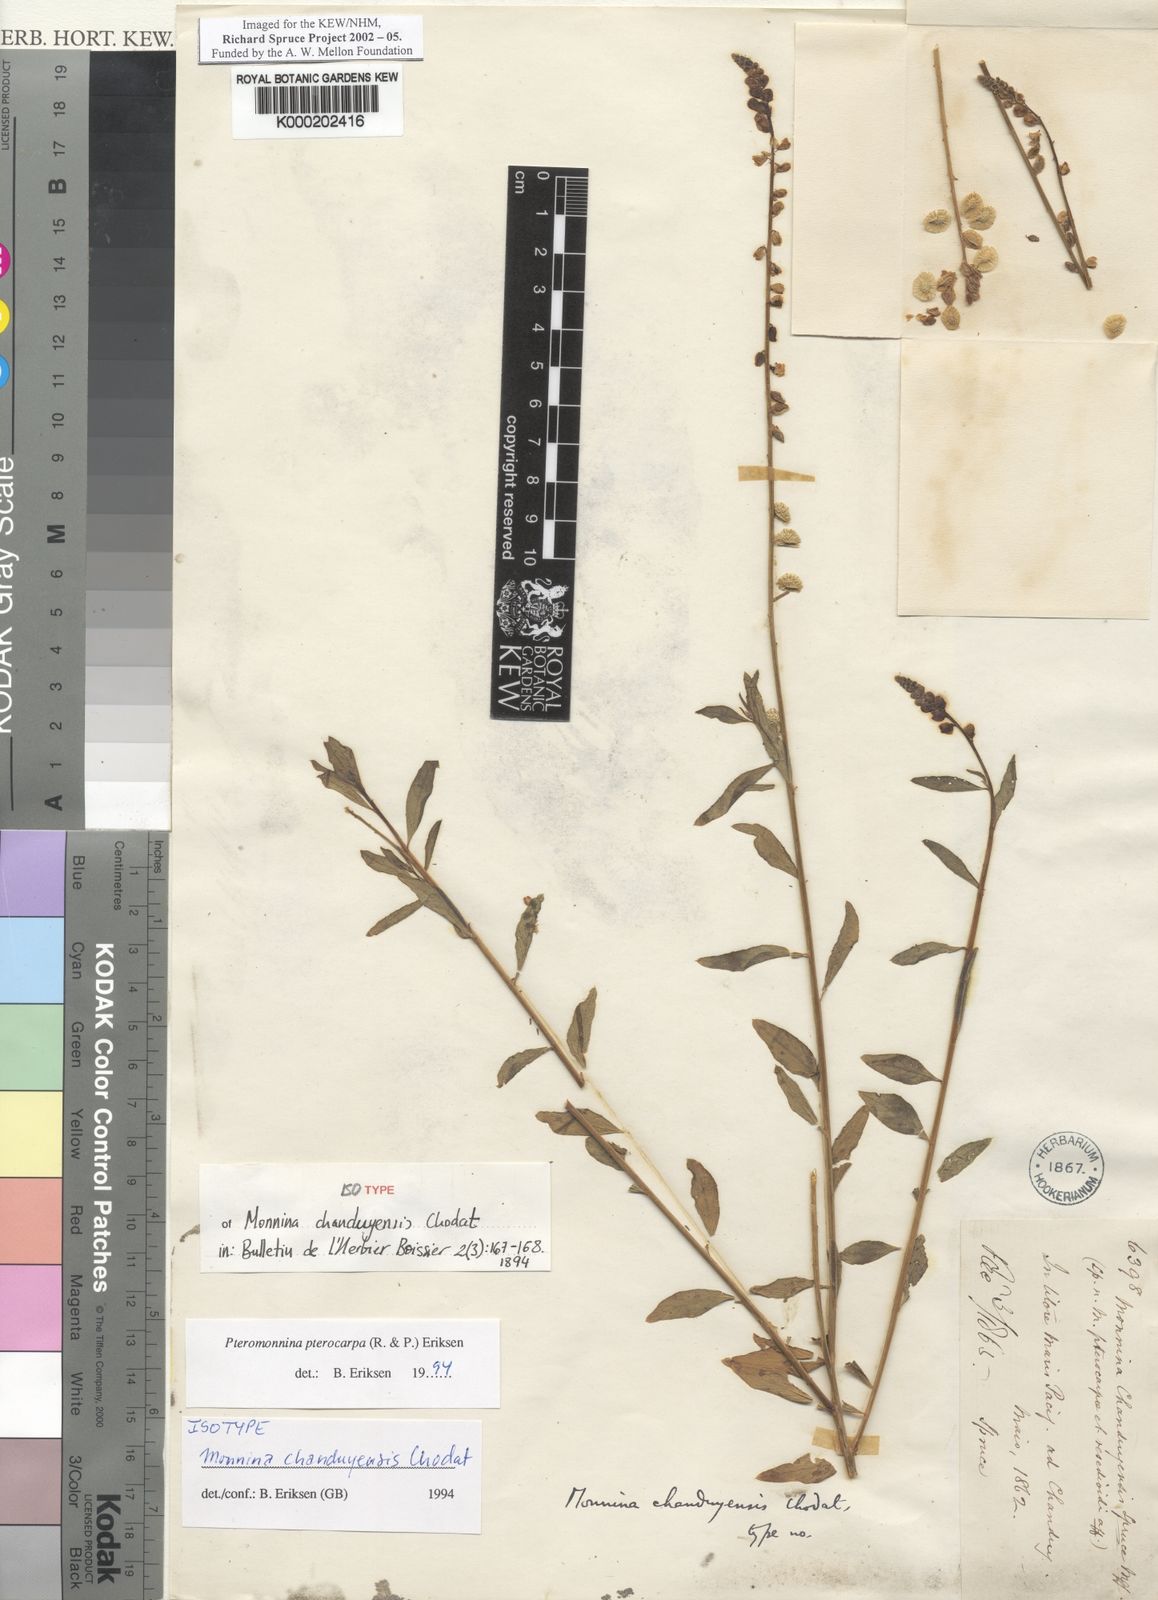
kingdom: Plantae
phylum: Tracheophyta
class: Magnoliopsida
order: Fabales
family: Polygalaceae
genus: Monnina
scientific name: Monnina pterocarpa
